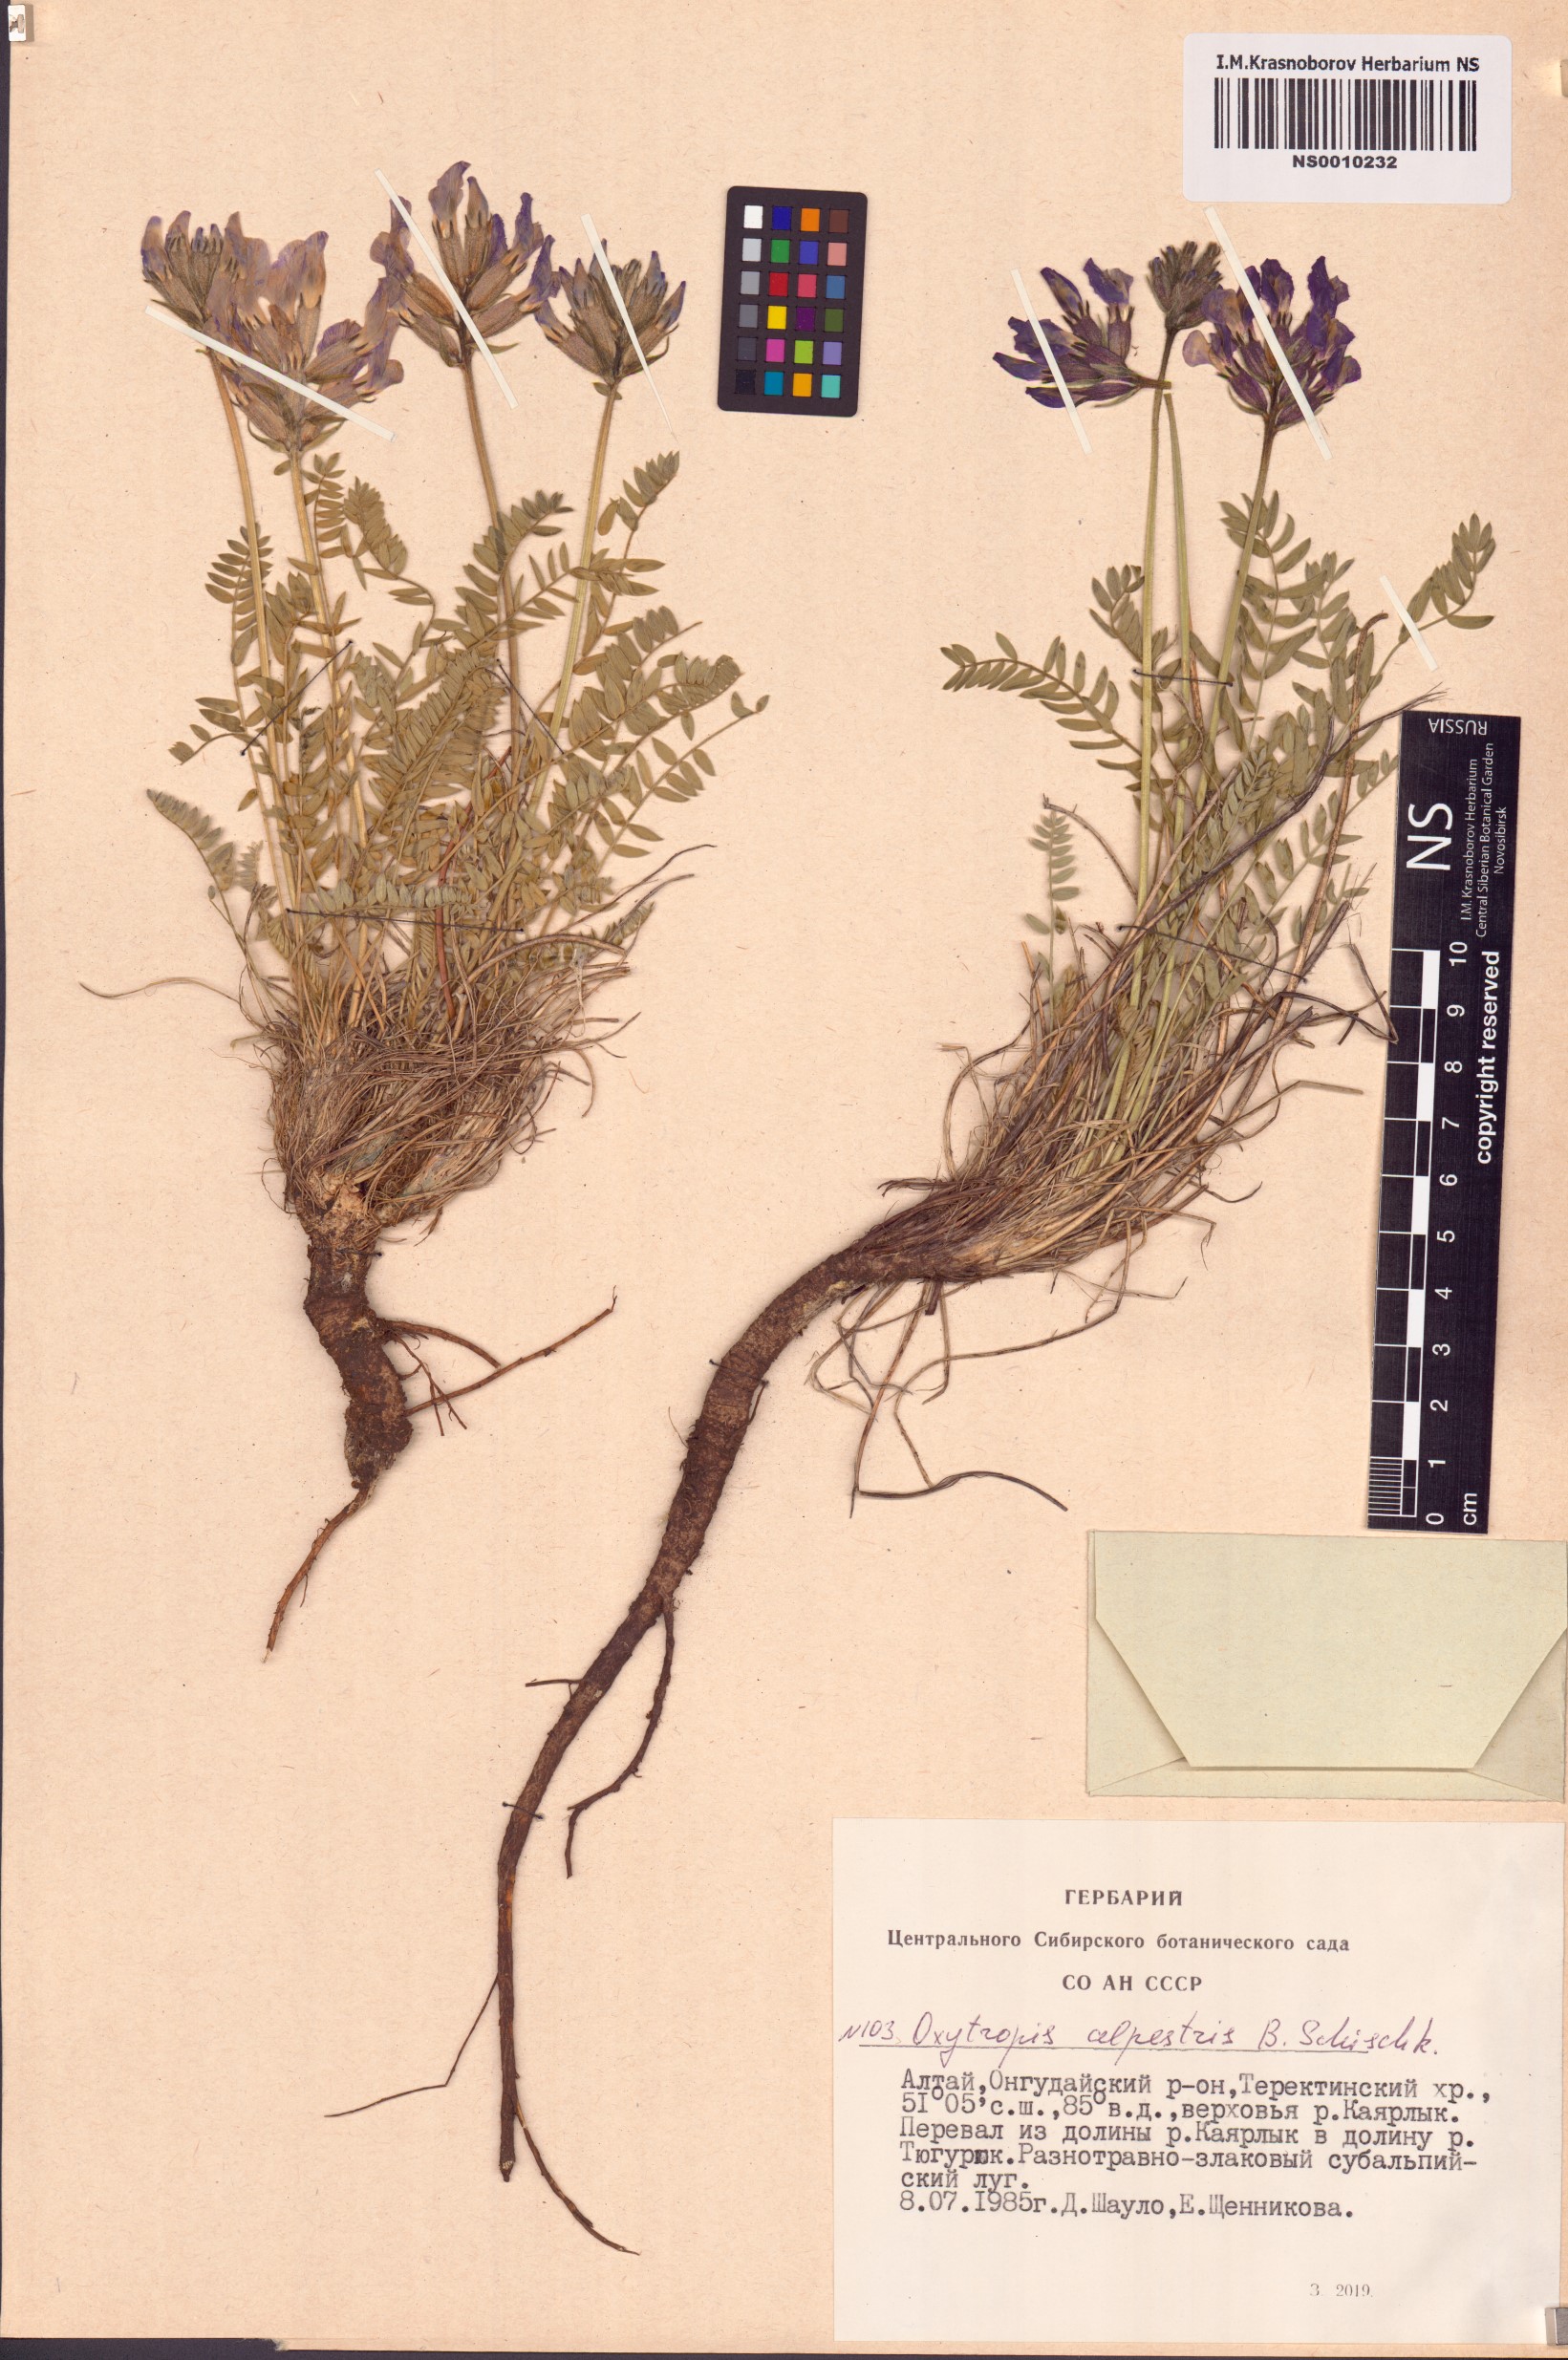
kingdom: Plantae
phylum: Tracheophyta
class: Magnoliopsida
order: Fabales
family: Fabaceae
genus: Oxytropis
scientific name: Oxytropis alpestris
